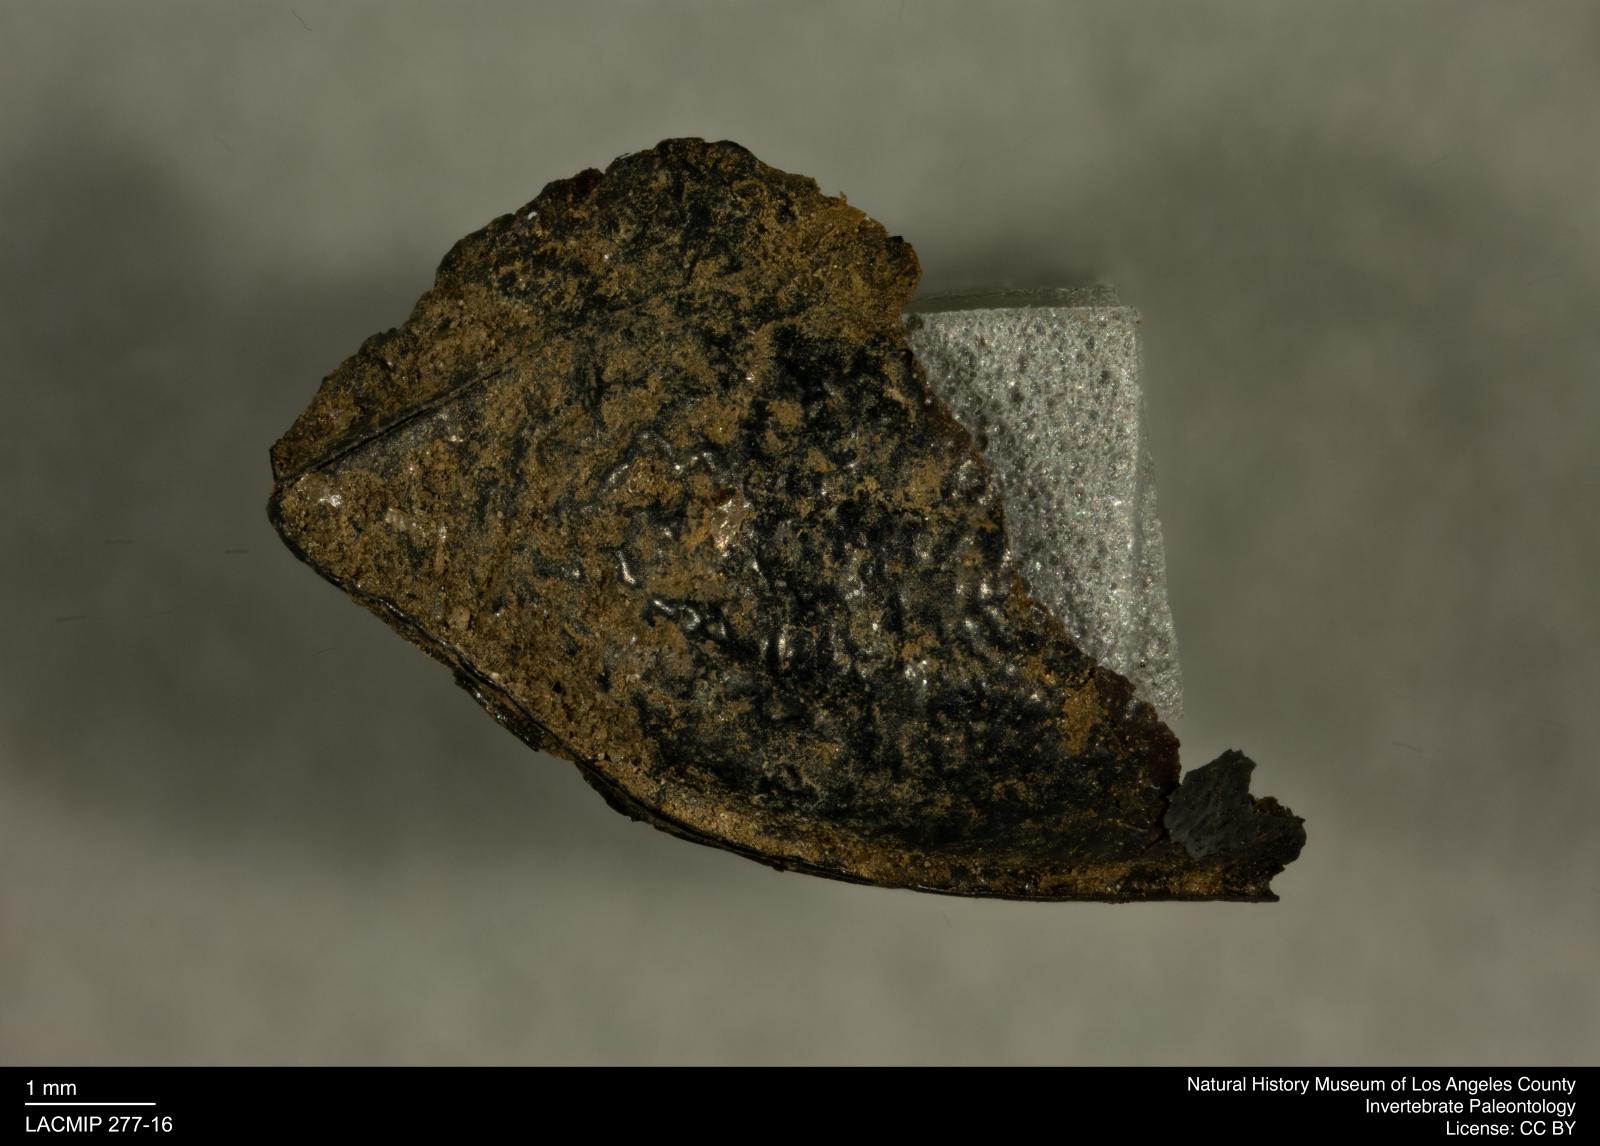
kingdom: Animalia
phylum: Arthropoda
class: Insecta
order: Coleoptera
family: Tenebrionidae
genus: Coniontis
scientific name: Coniontis abdominalis
